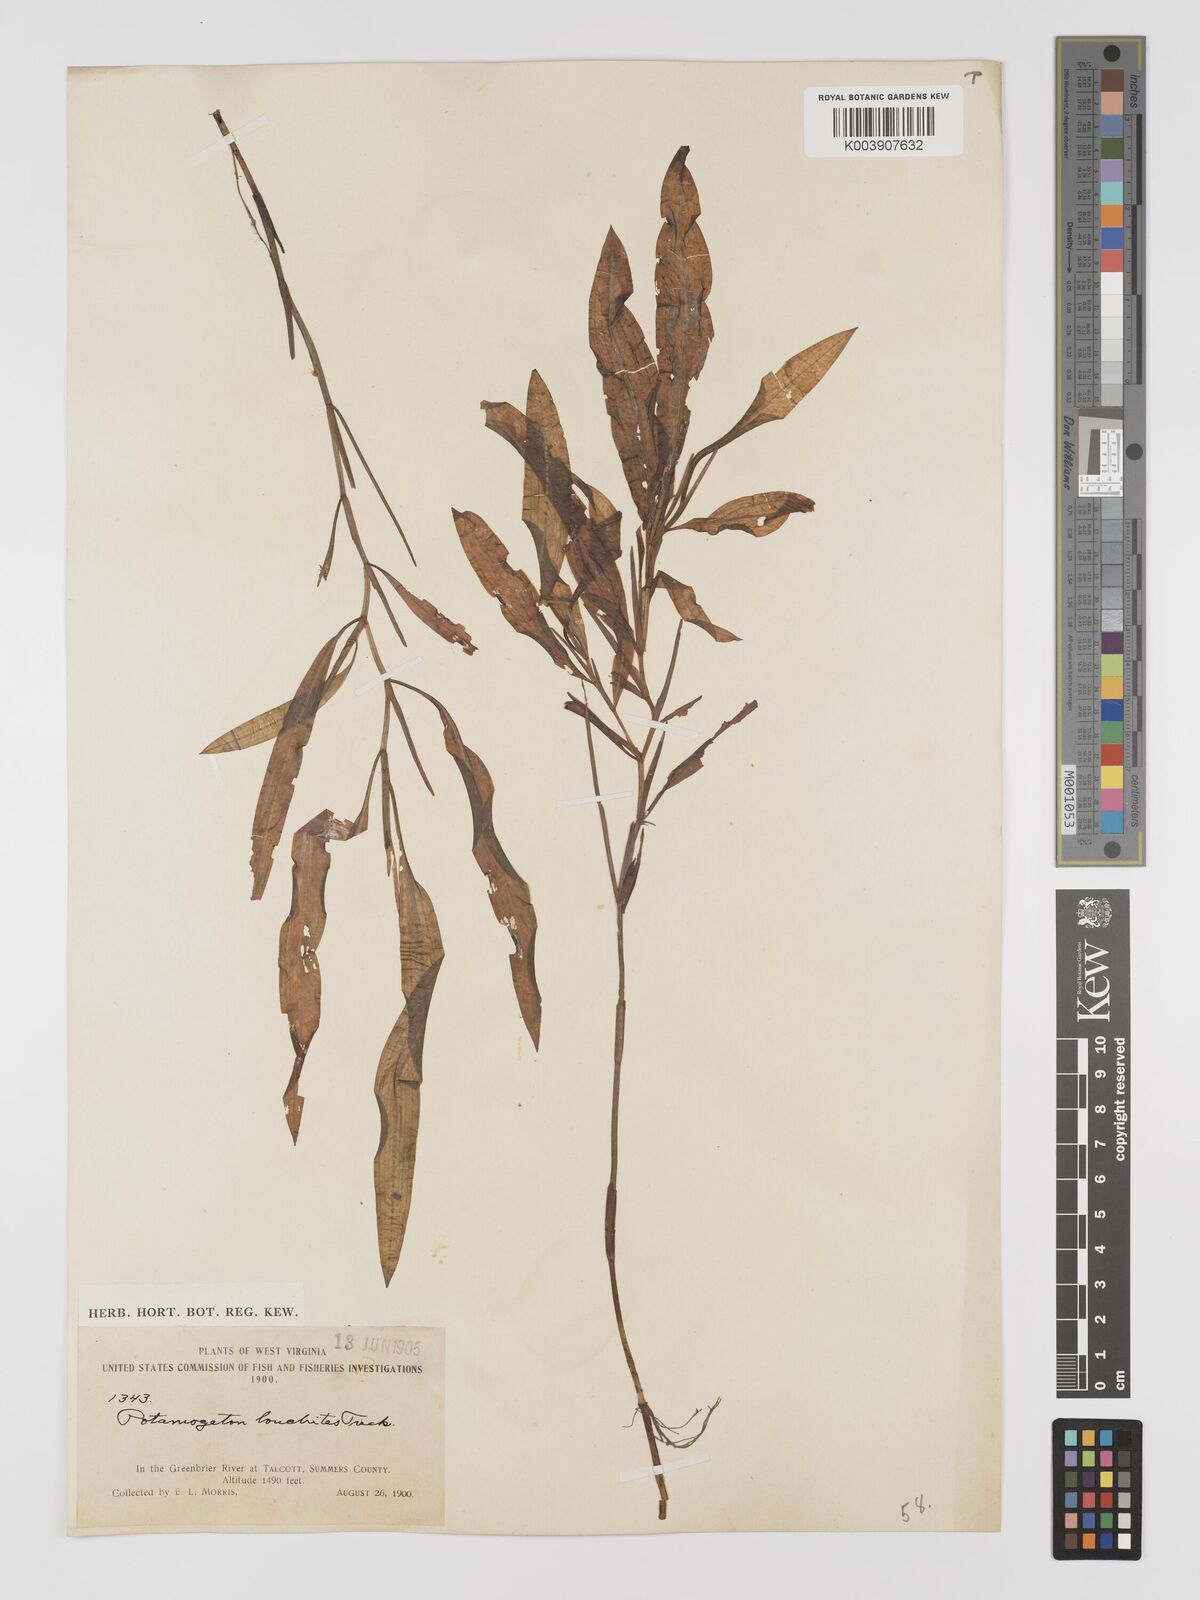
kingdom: Plantae
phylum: Tracheophyta
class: Liliopsida
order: Alismatales
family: Potamogetonaceae
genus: Potamogeton
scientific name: Potamogeton nodosus
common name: Loddon pondweed
